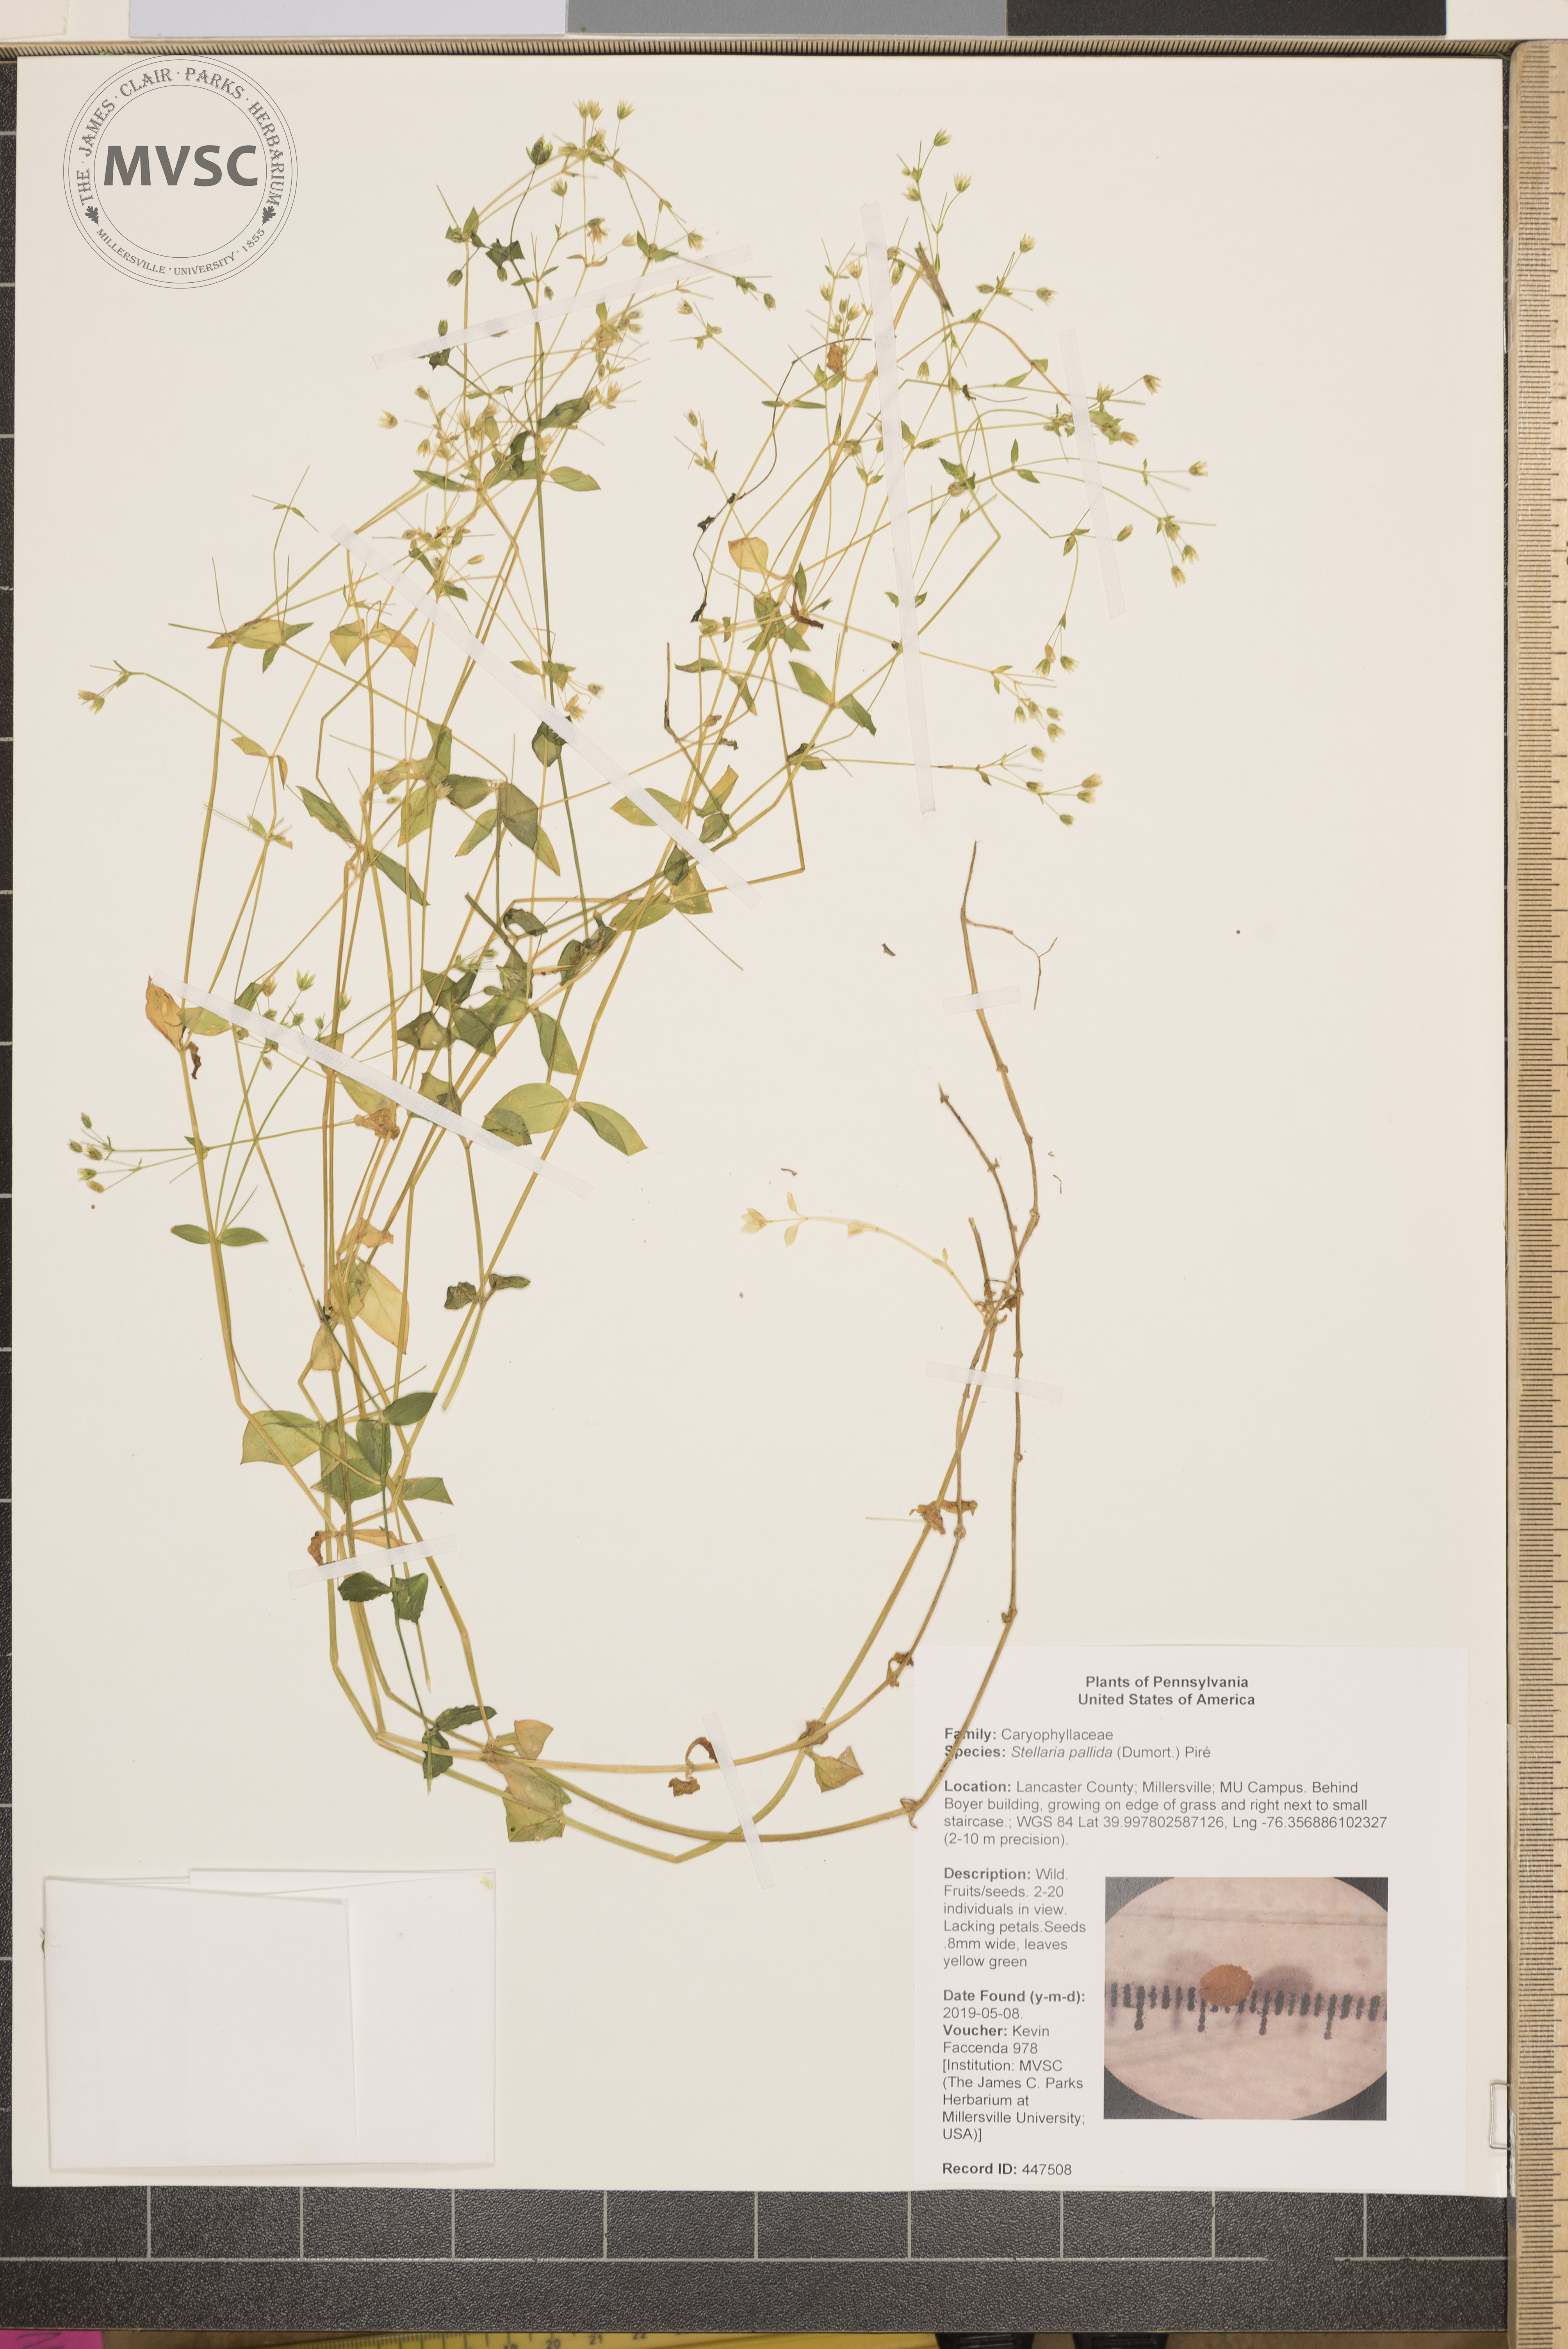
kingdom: Plantae
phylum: Tracheophyta
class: Magnoliopsida
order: Caryophyllales
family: Caryophyllaceae
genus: Stellaria
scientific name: Stellaria apetala
